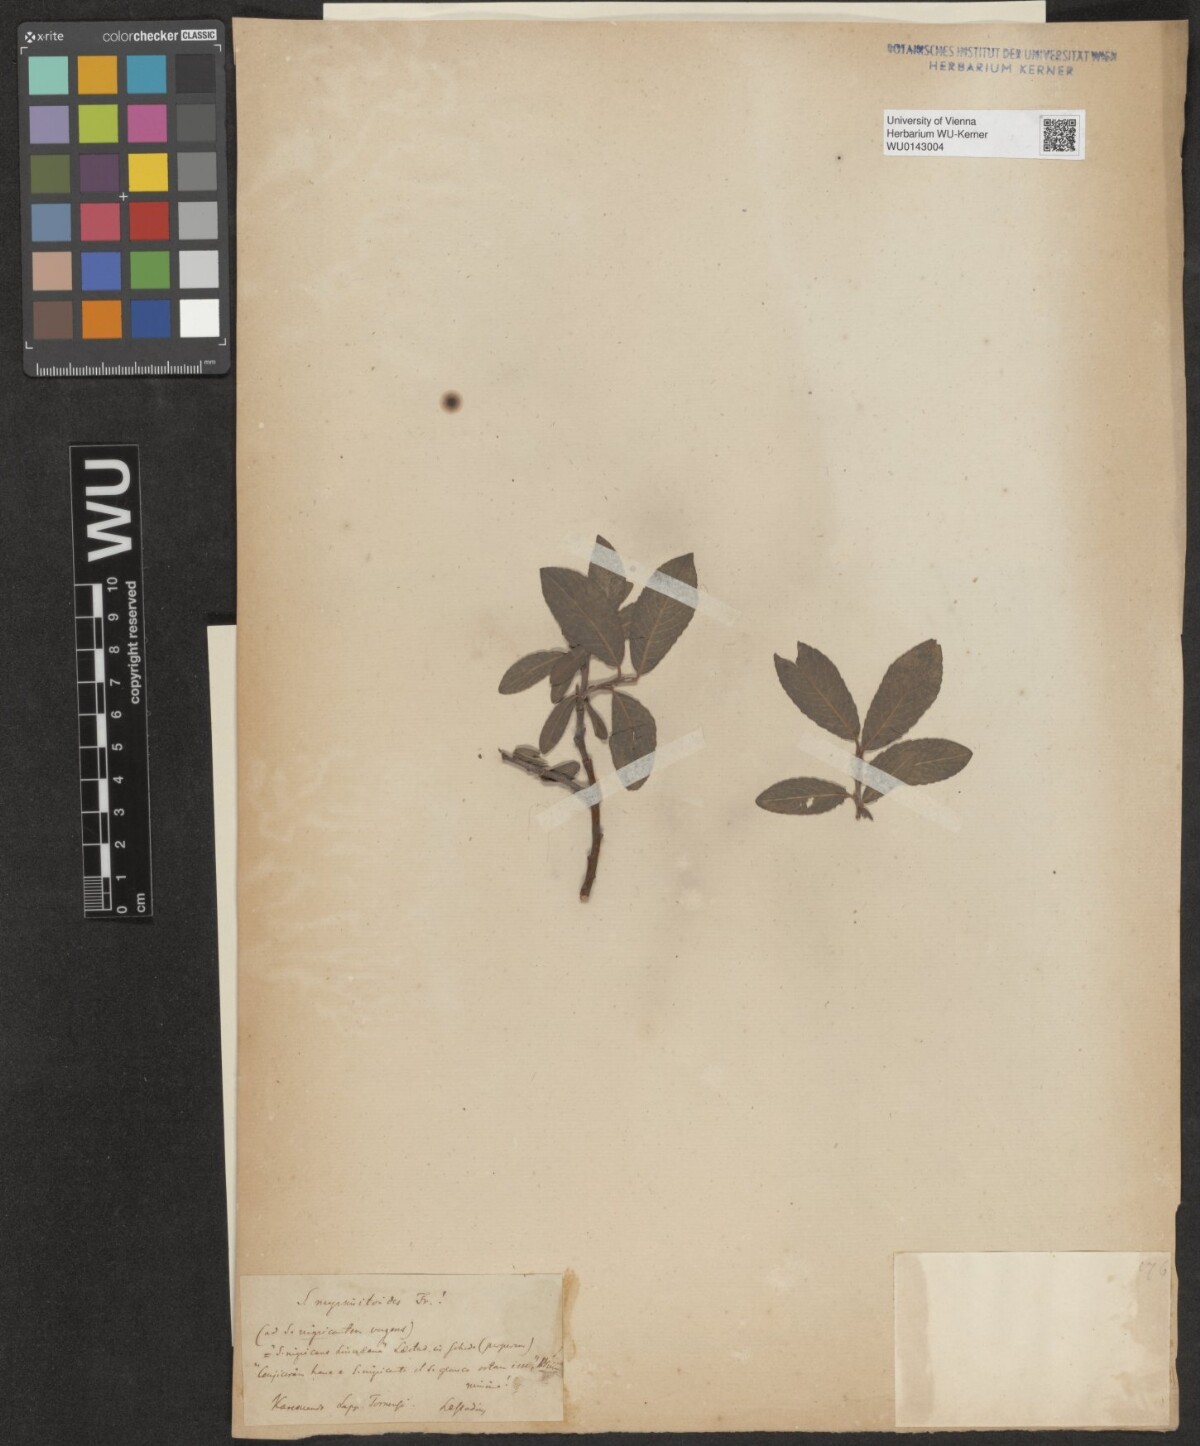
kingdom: Plantae
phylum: Tracheophyta
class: Magnoliopsida
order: Malpighiales
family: Salicaceae
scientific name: Salicaceae
